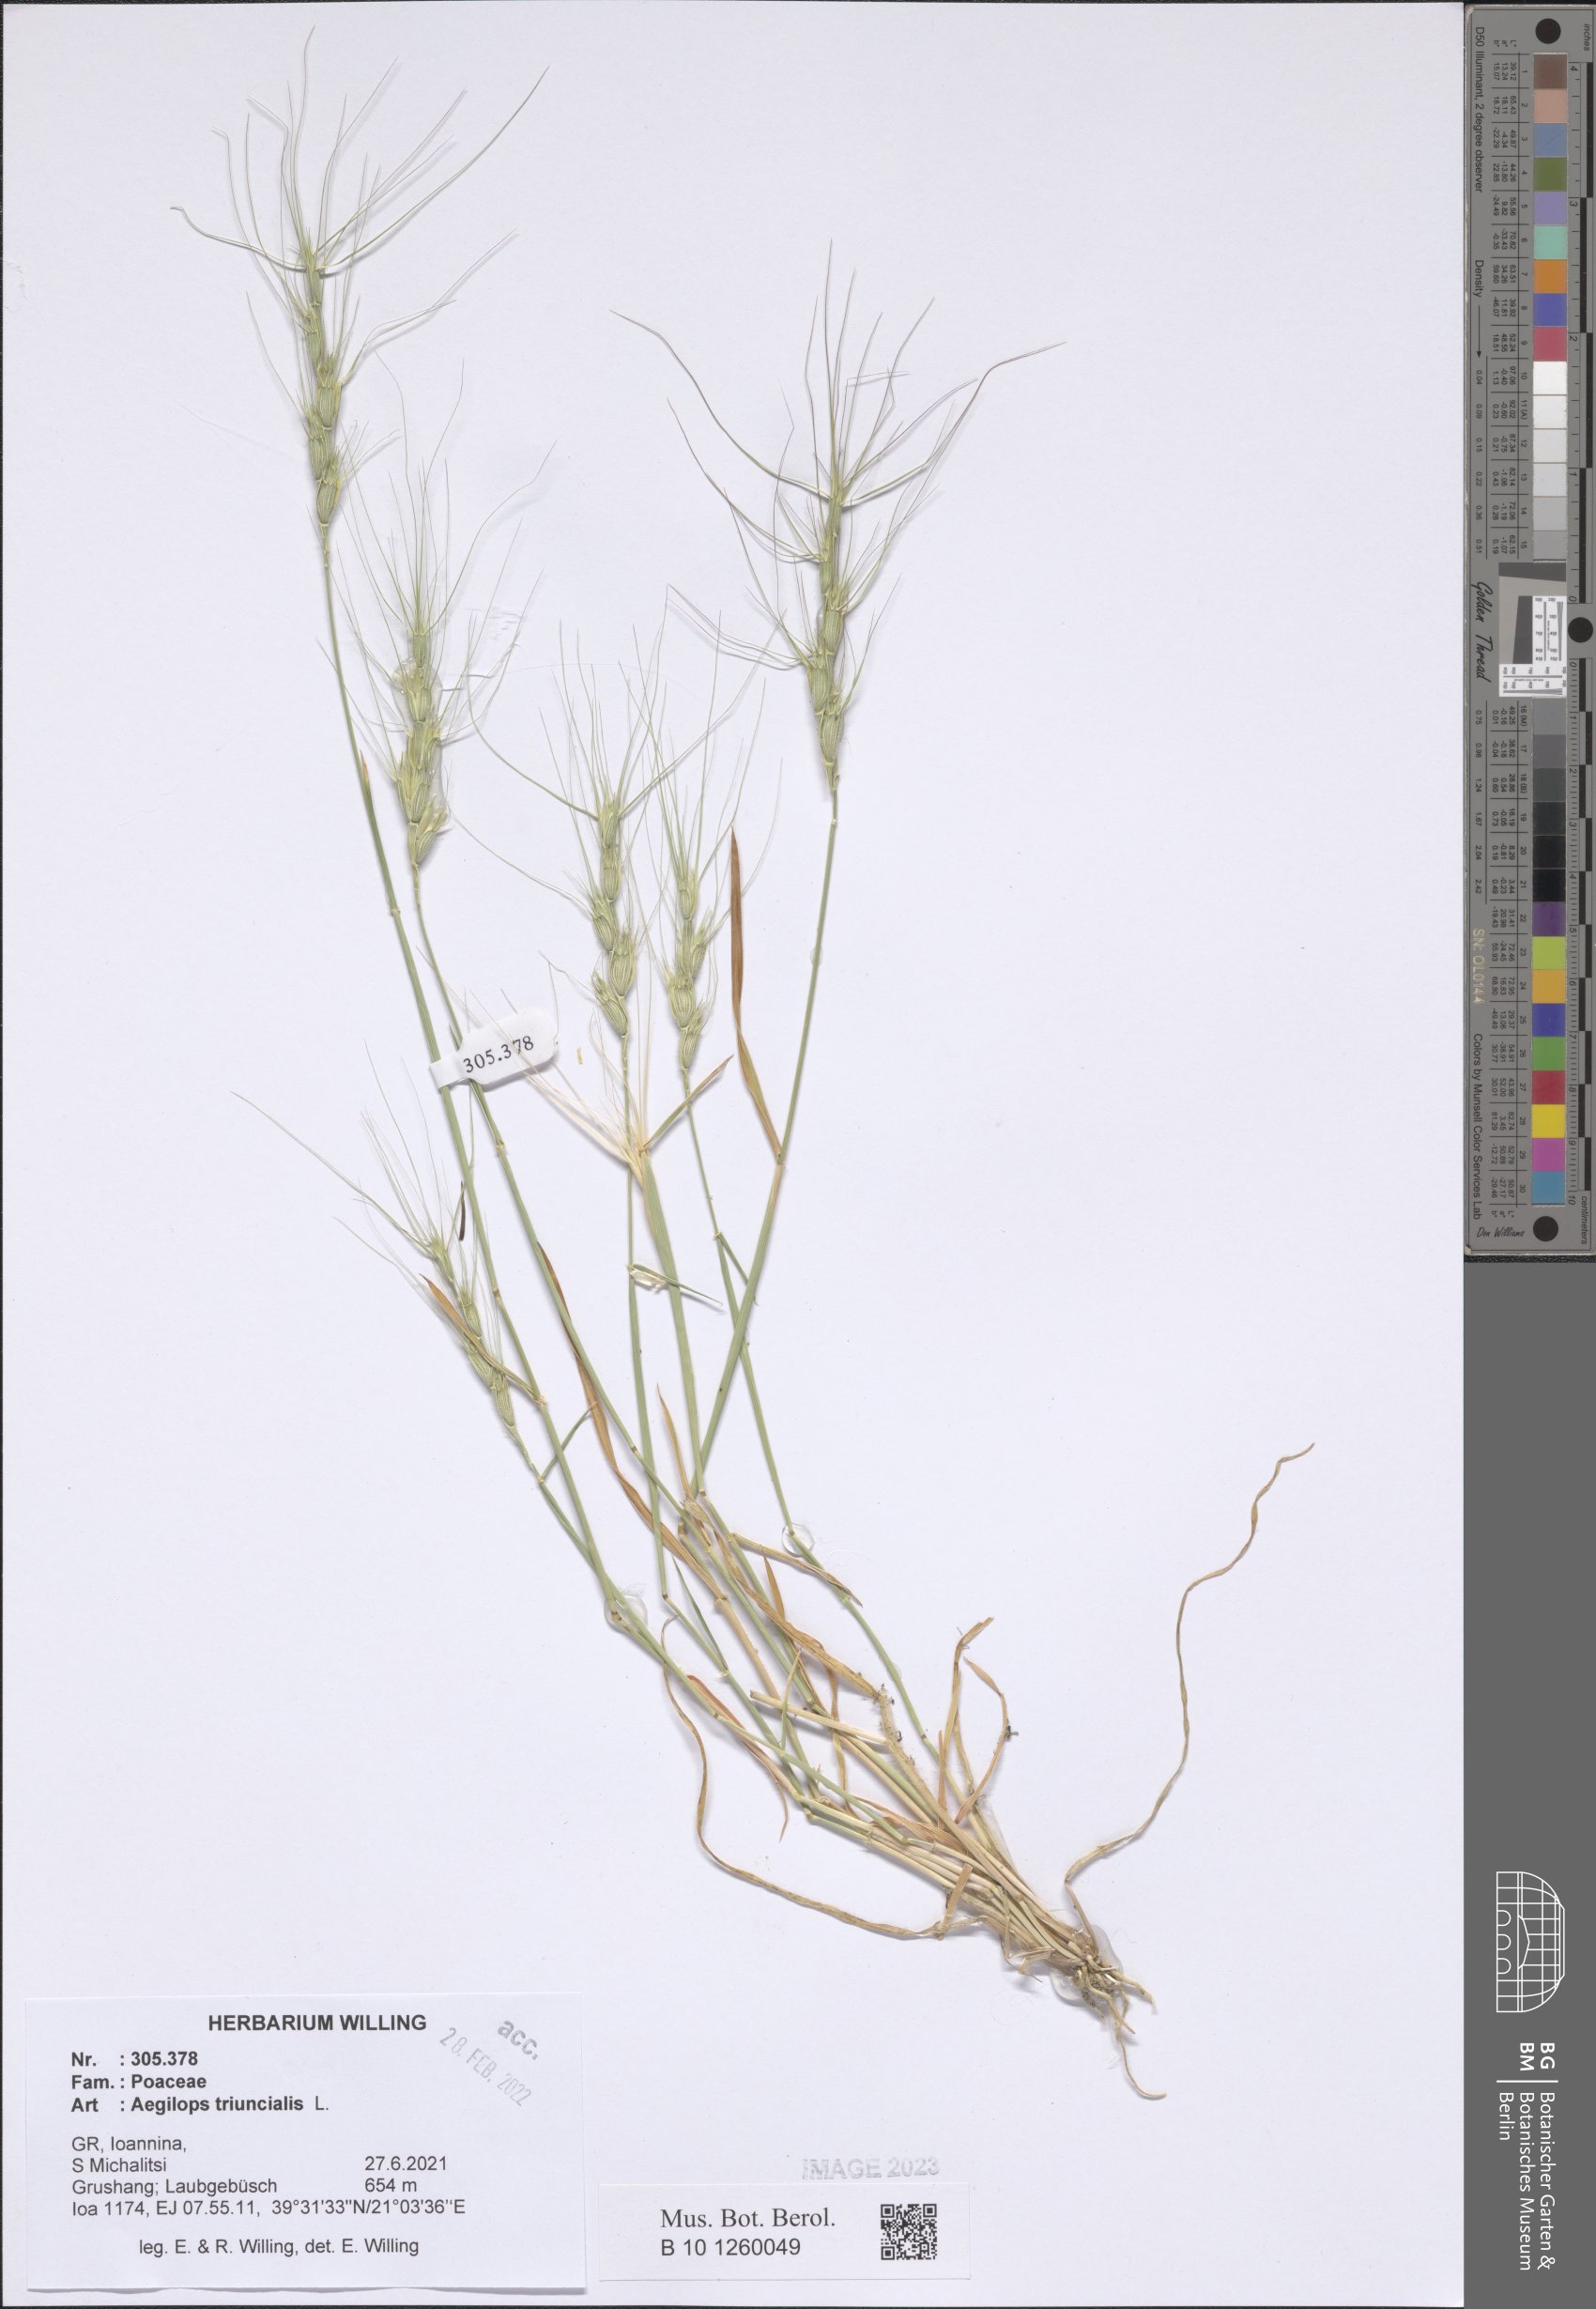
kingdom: Plantae
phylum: Tracheophyta
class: Liliopsida
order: Poales
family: Poaceae
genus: Aegilops
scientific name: Aegilops triuncialis
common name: Barb goat grass
